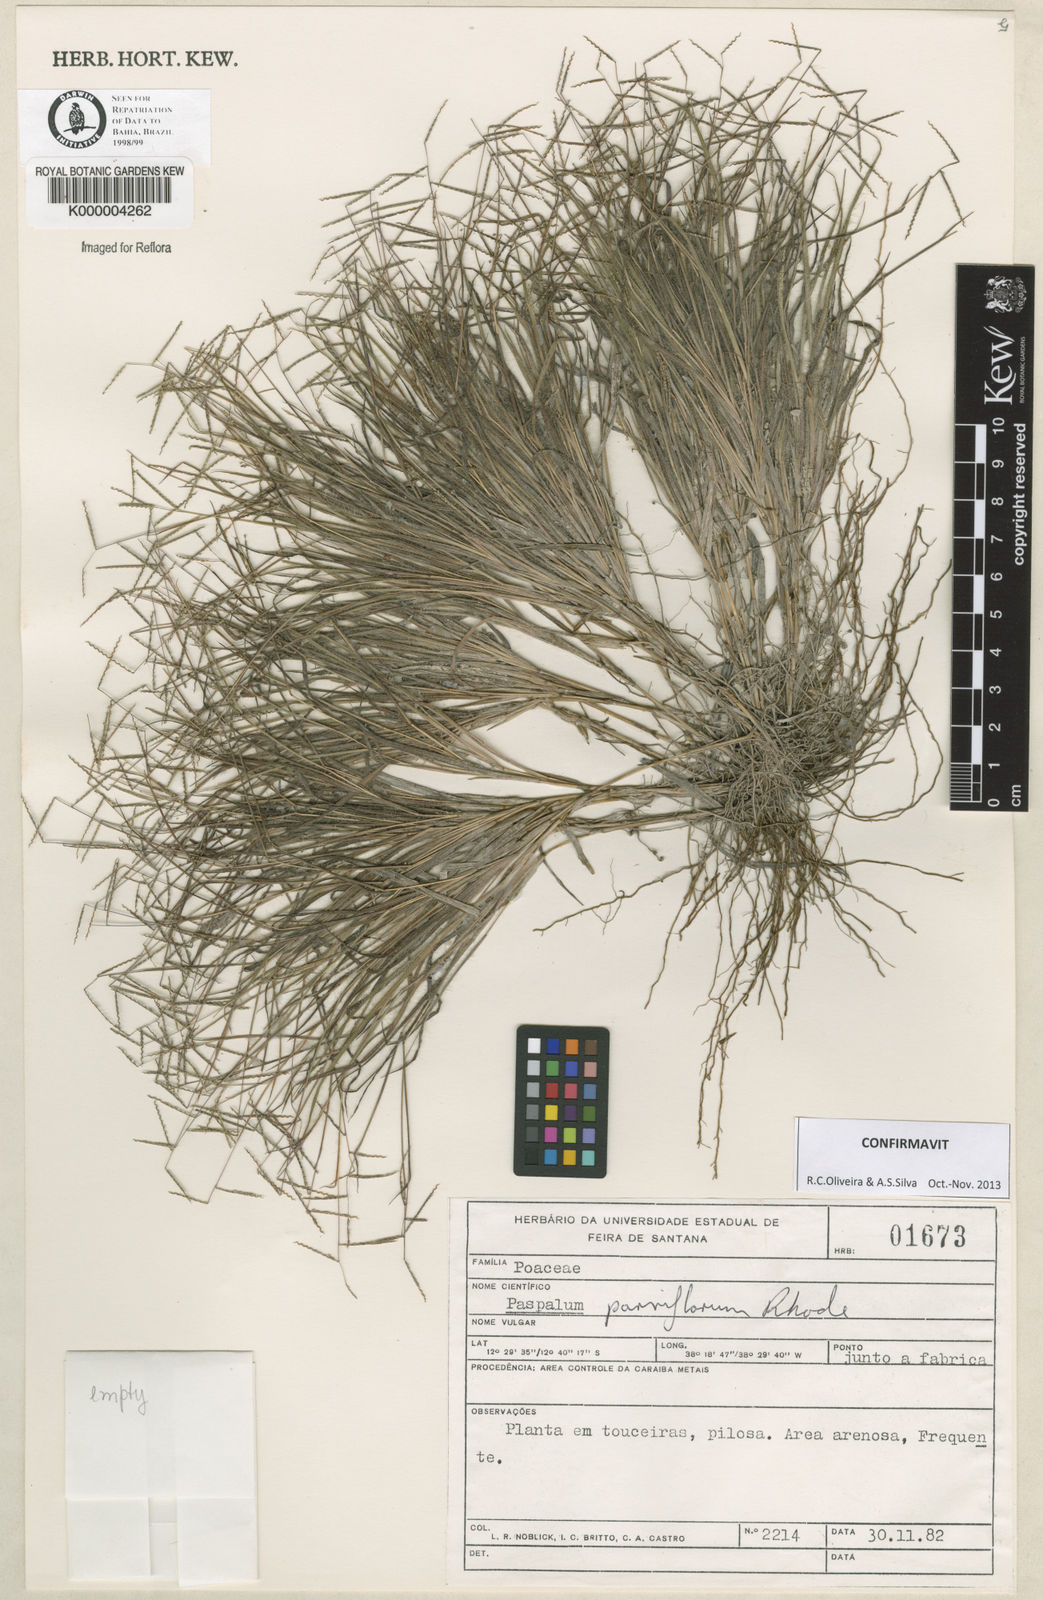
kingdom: Plantae
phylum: Tracheophyta
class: Liliopsida
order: Poales
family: Poaceae
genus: Paspalum
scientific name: Paspalum
